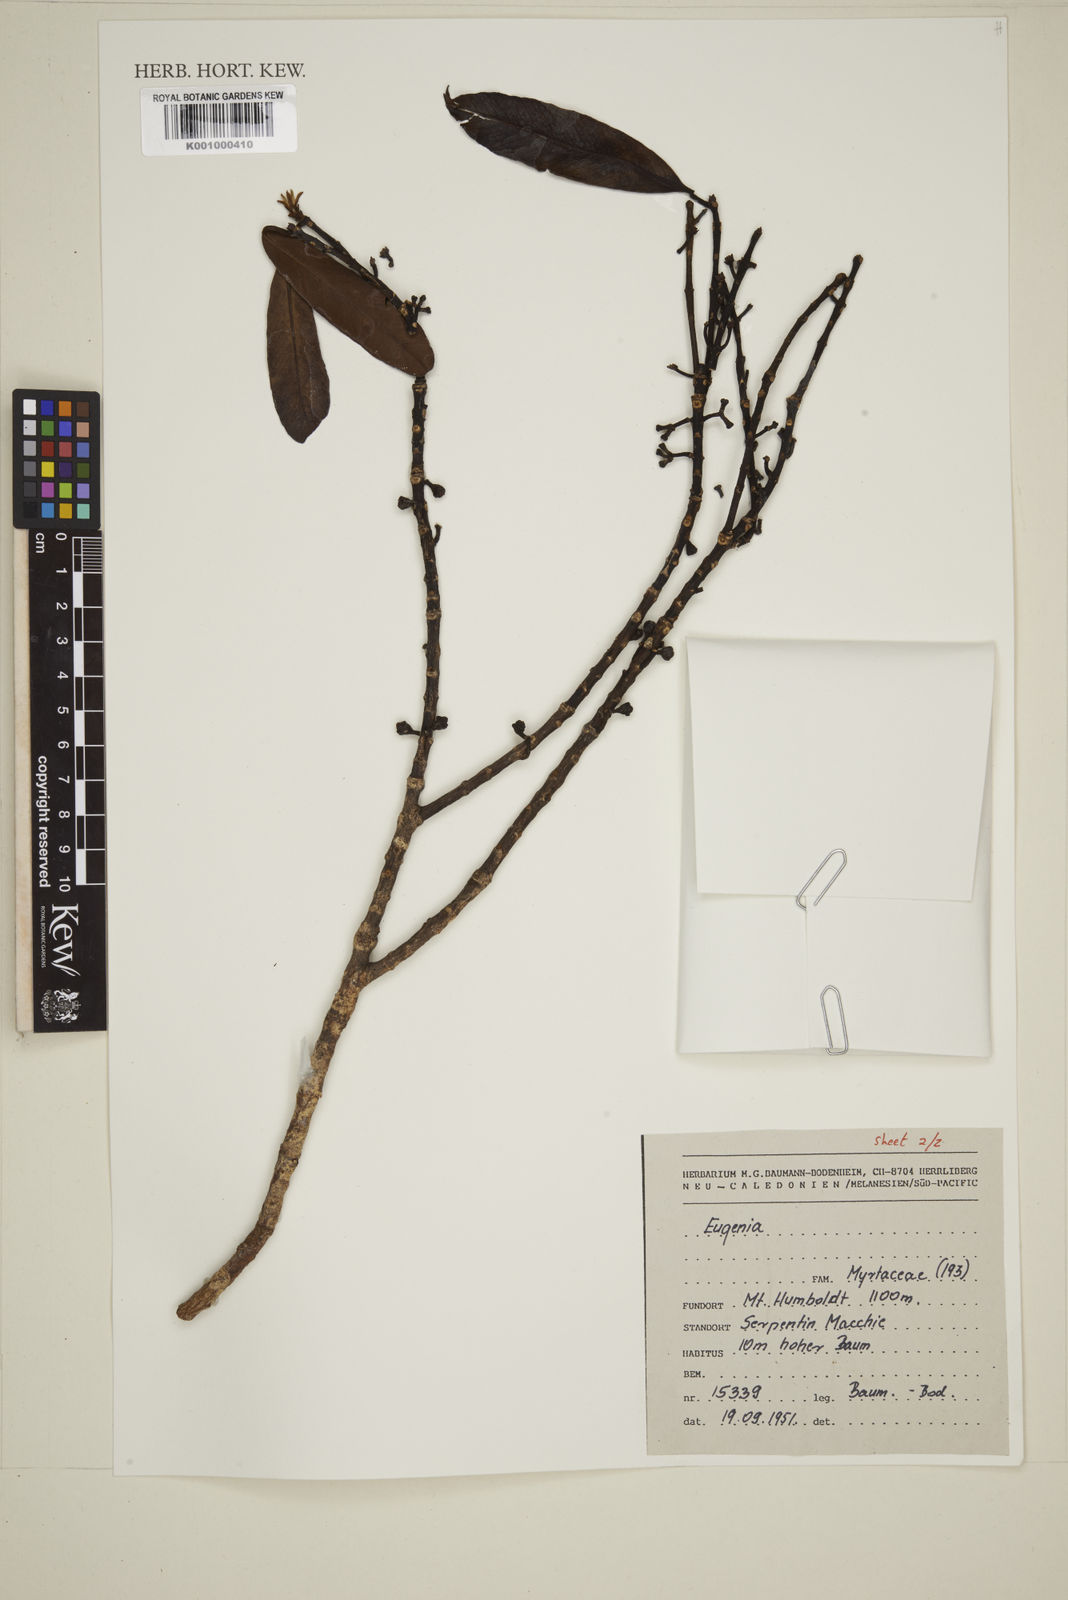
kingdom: Plantae
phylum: Tracheophyta
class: Magnoliopsida
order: Myrtales
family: Myrtaceae
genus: Eugenia
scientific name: Eugenia
